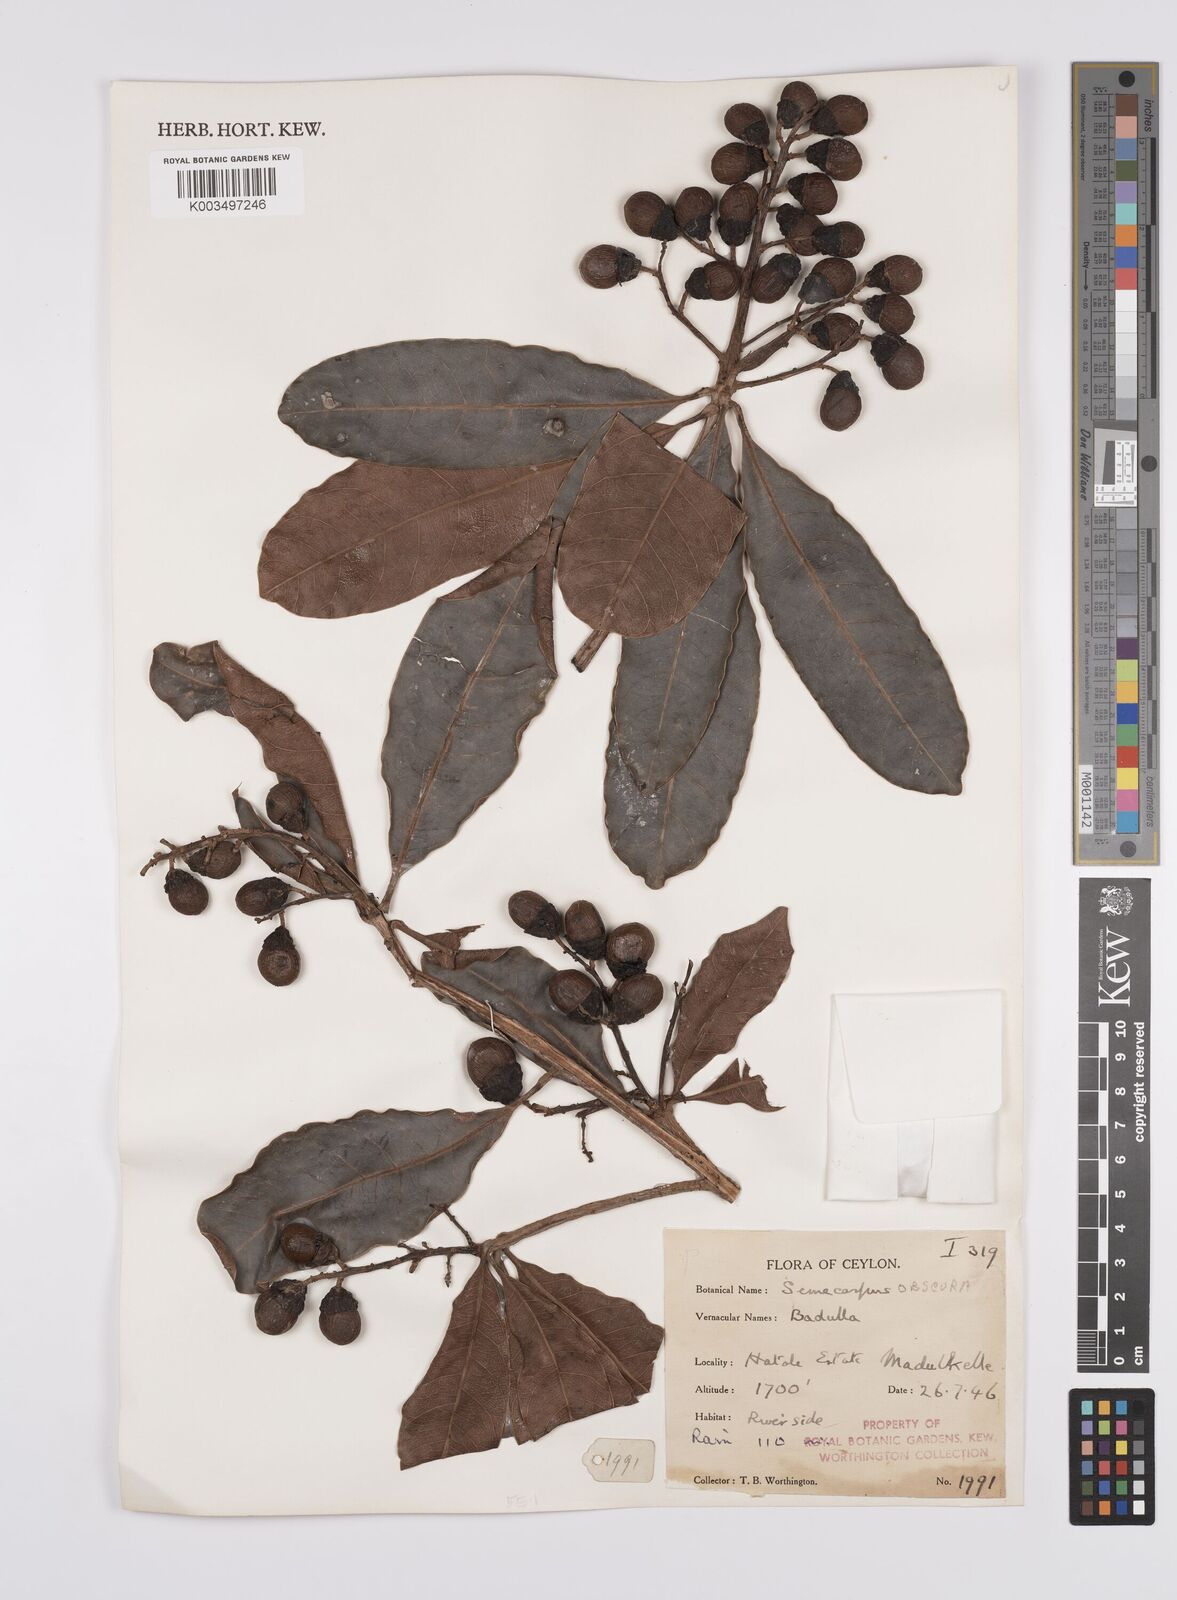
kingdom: Plantae
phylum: Tracheophyta
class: Magnoliopsida
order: Sapindales
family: Anacardiaceae
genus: Semecarpus
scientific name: Semecarpus walkeri
